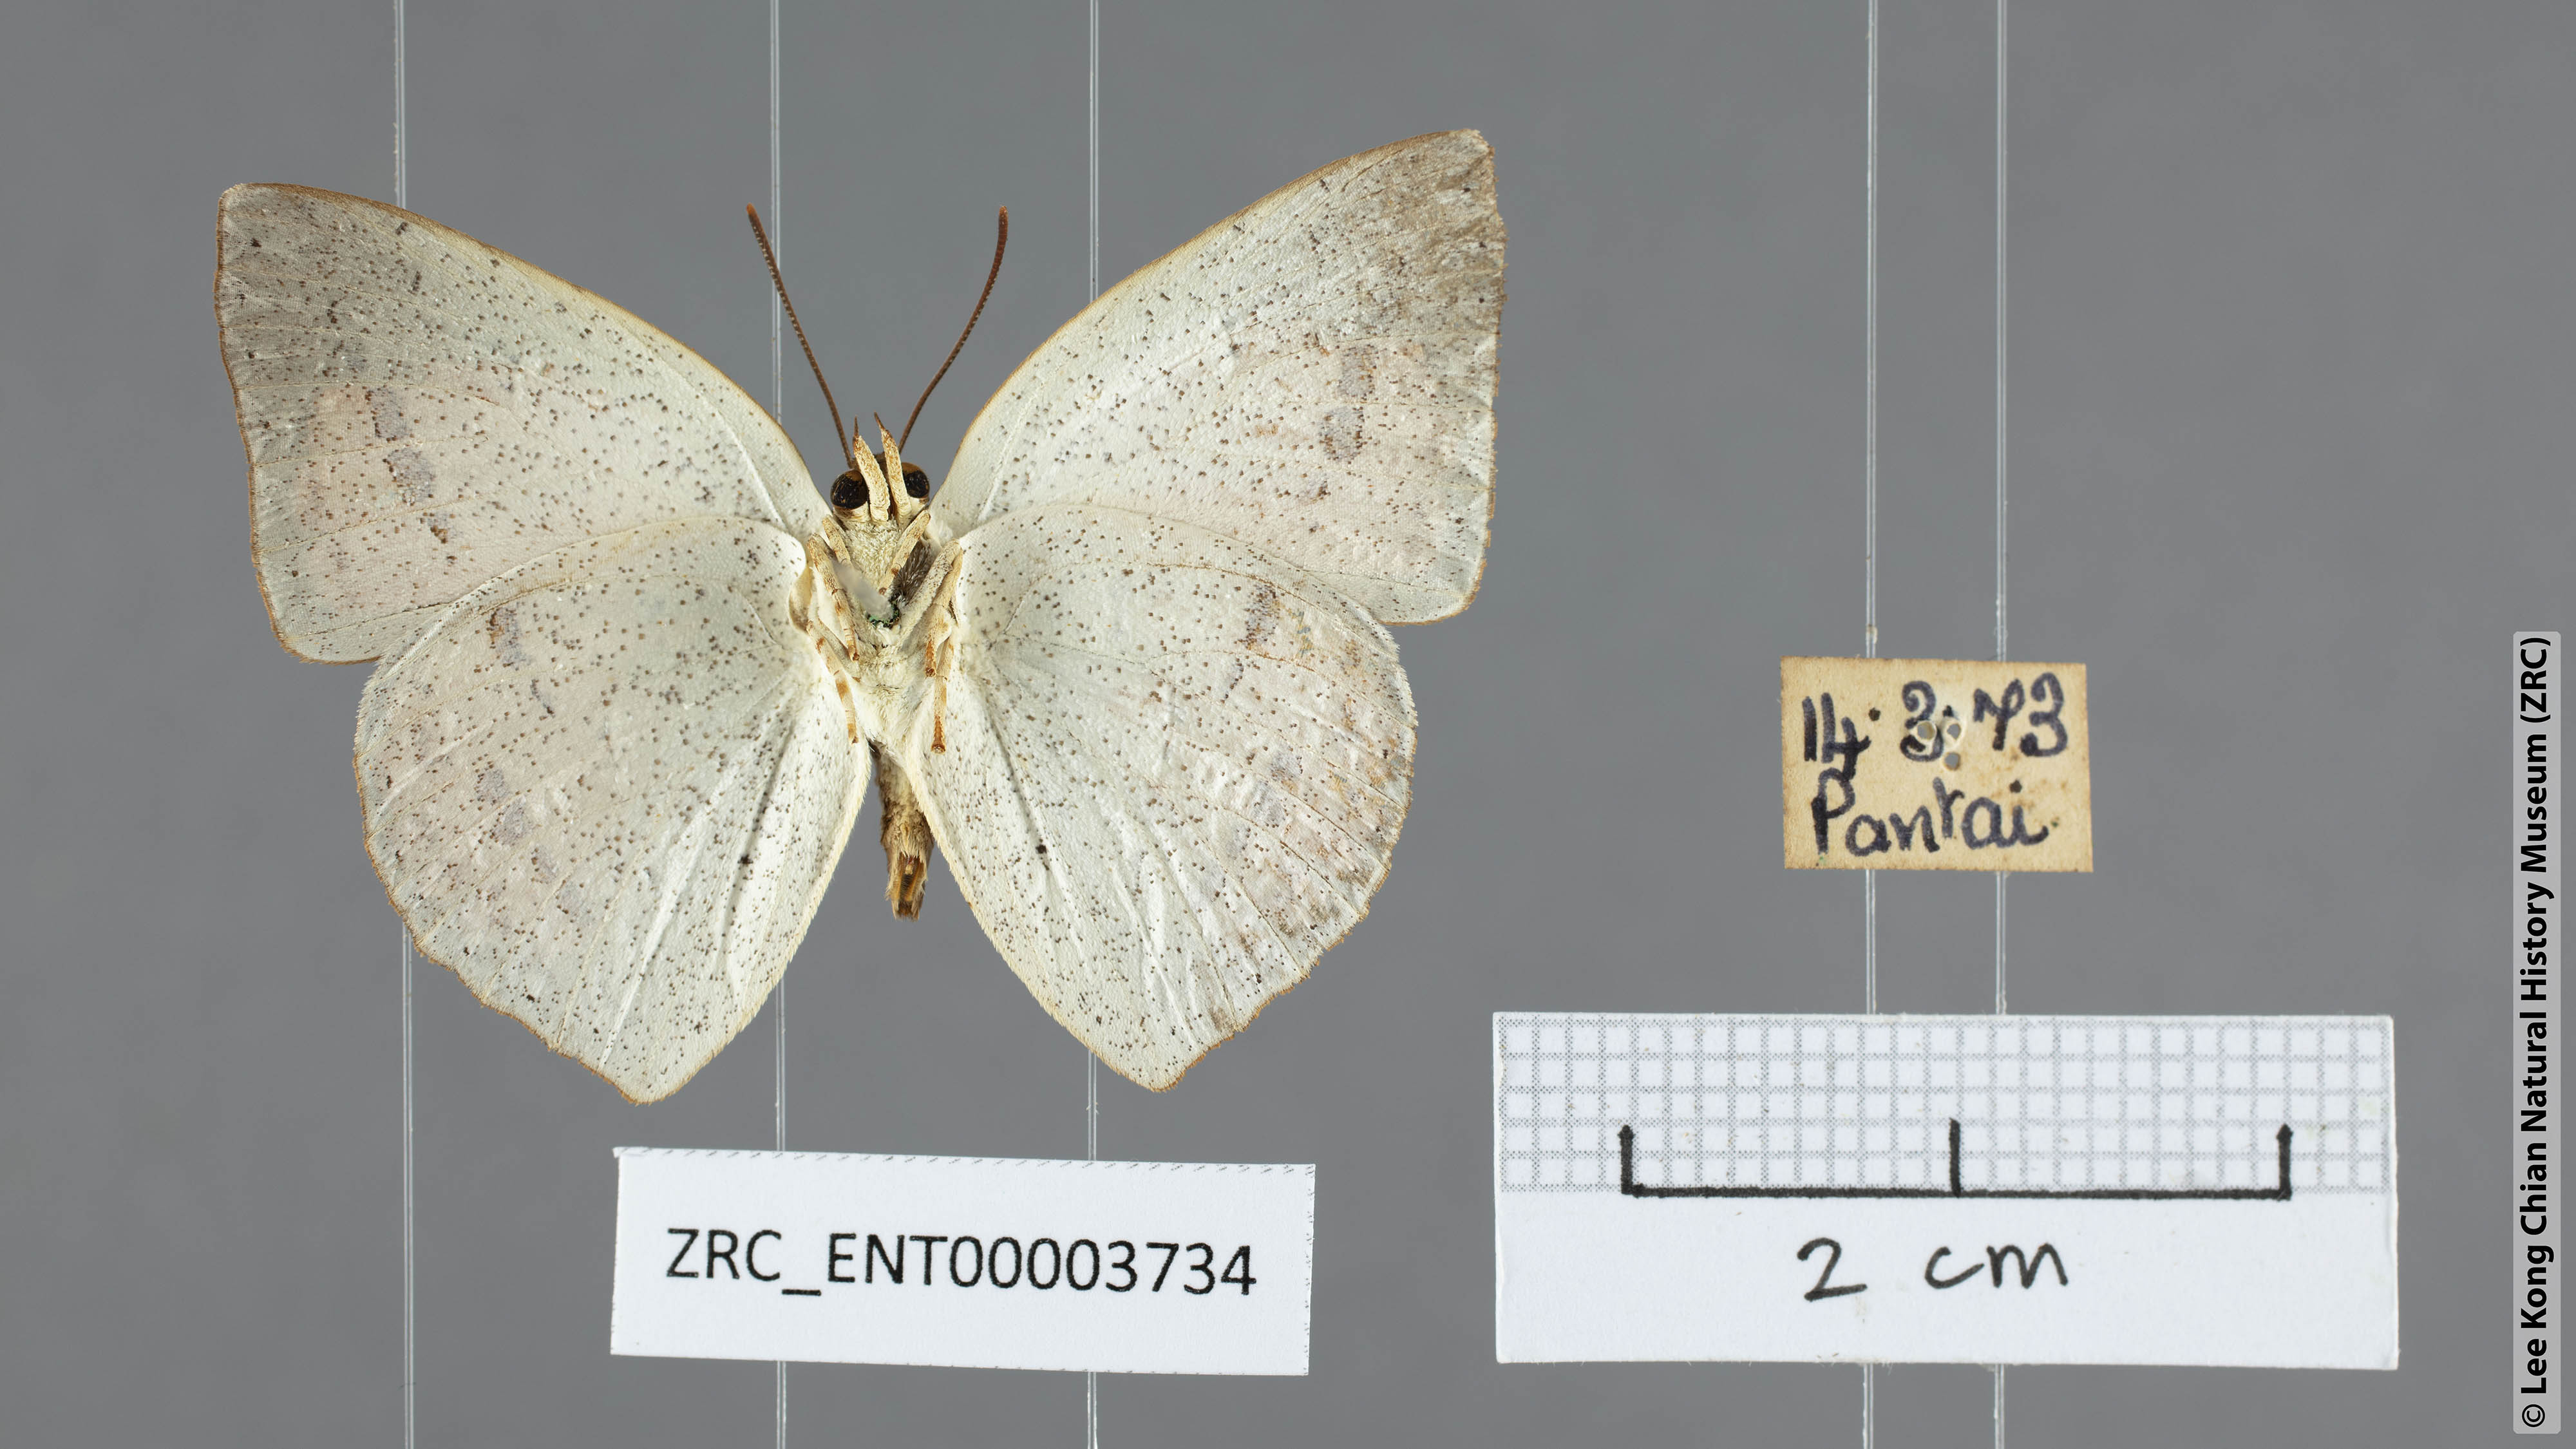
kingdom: Animalia
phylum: Arthropoda
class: Insecta
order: Lepidoptera
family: Lycaenidae
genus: Curetis
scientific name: Curetis felderi
